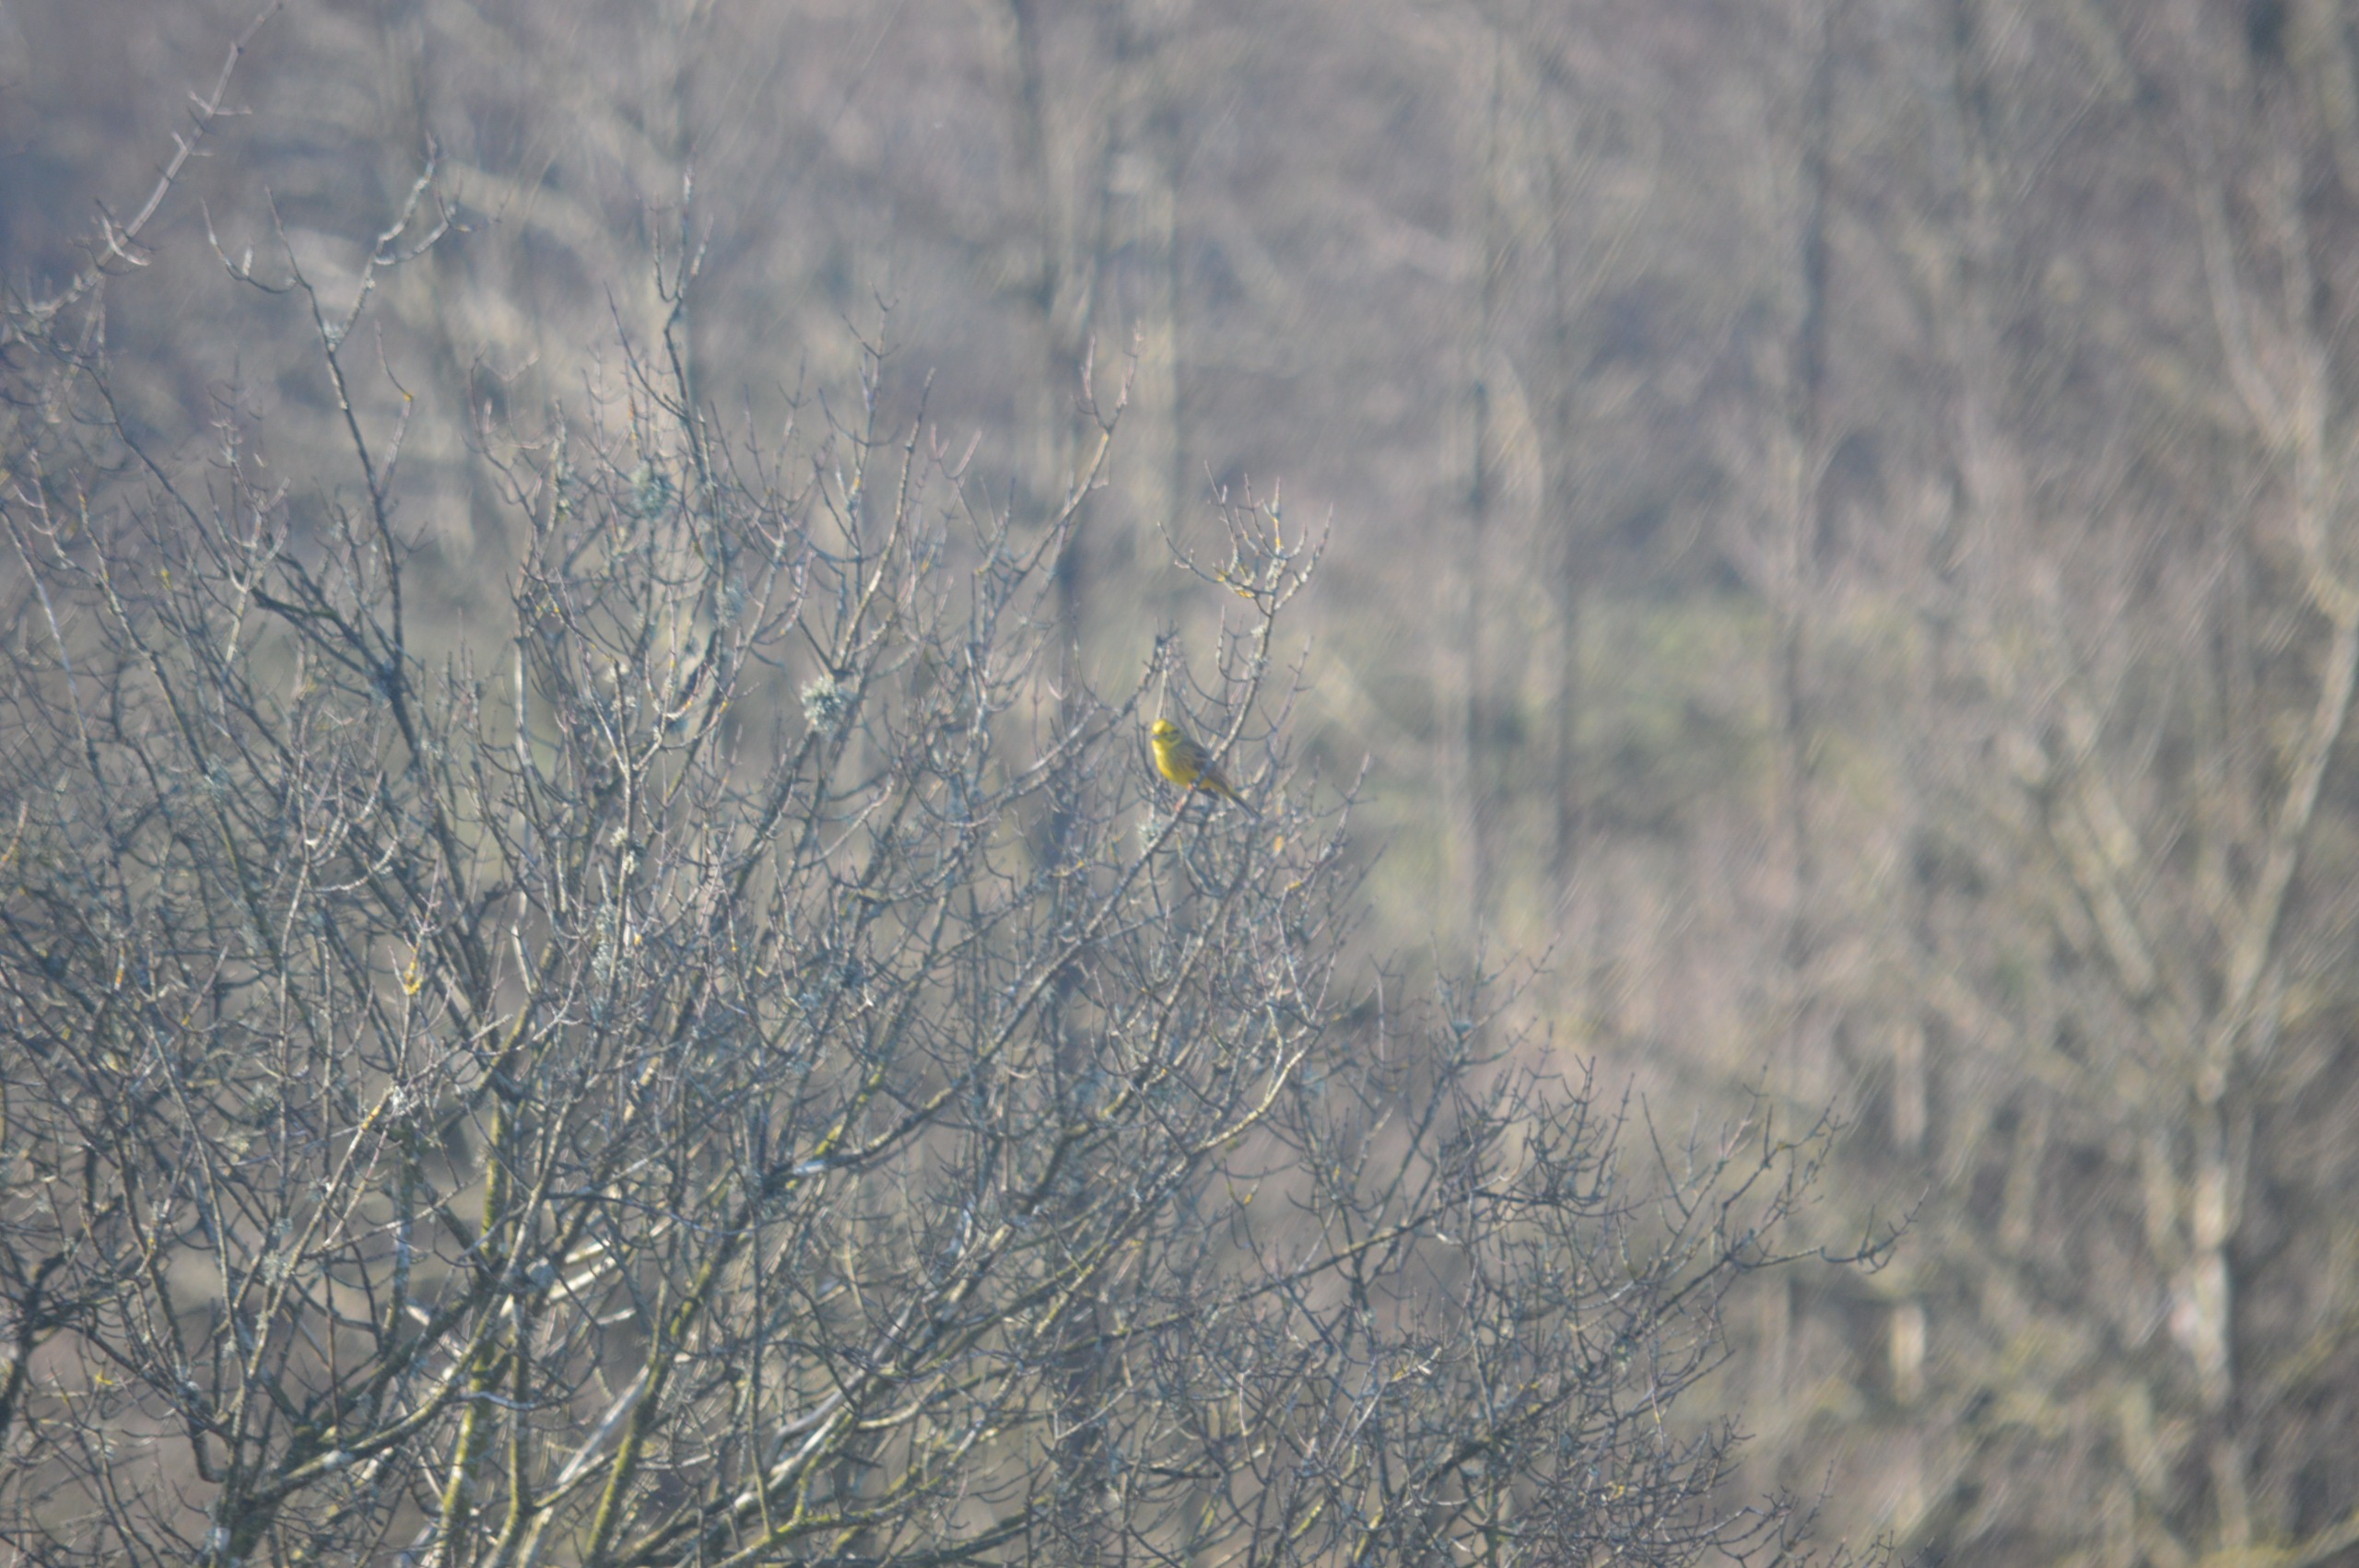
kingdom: Animalia
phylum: Chordata
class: Aves
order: Passeriformes
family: Emberizidae
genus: Emberiza
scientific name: Emberiza citrinella
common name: Gulspurv
